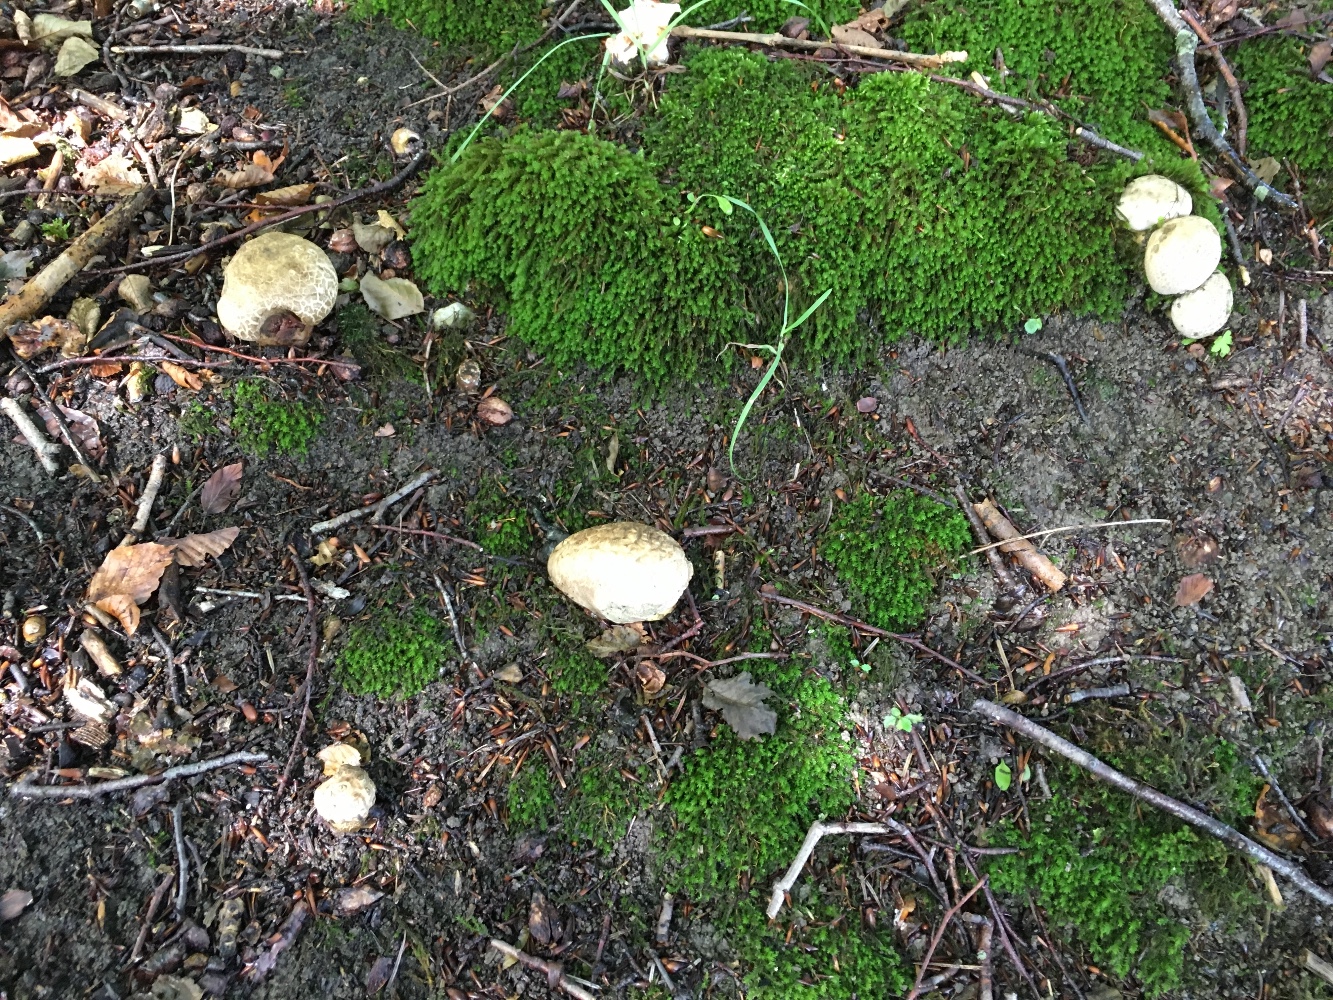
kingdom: Fungi
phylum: Basidiomycota
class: Agaricomycetes
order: Boletales
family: Boletaceae
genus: Caloboletus
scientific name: Caloboletus radicans
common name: rod-rørhat
